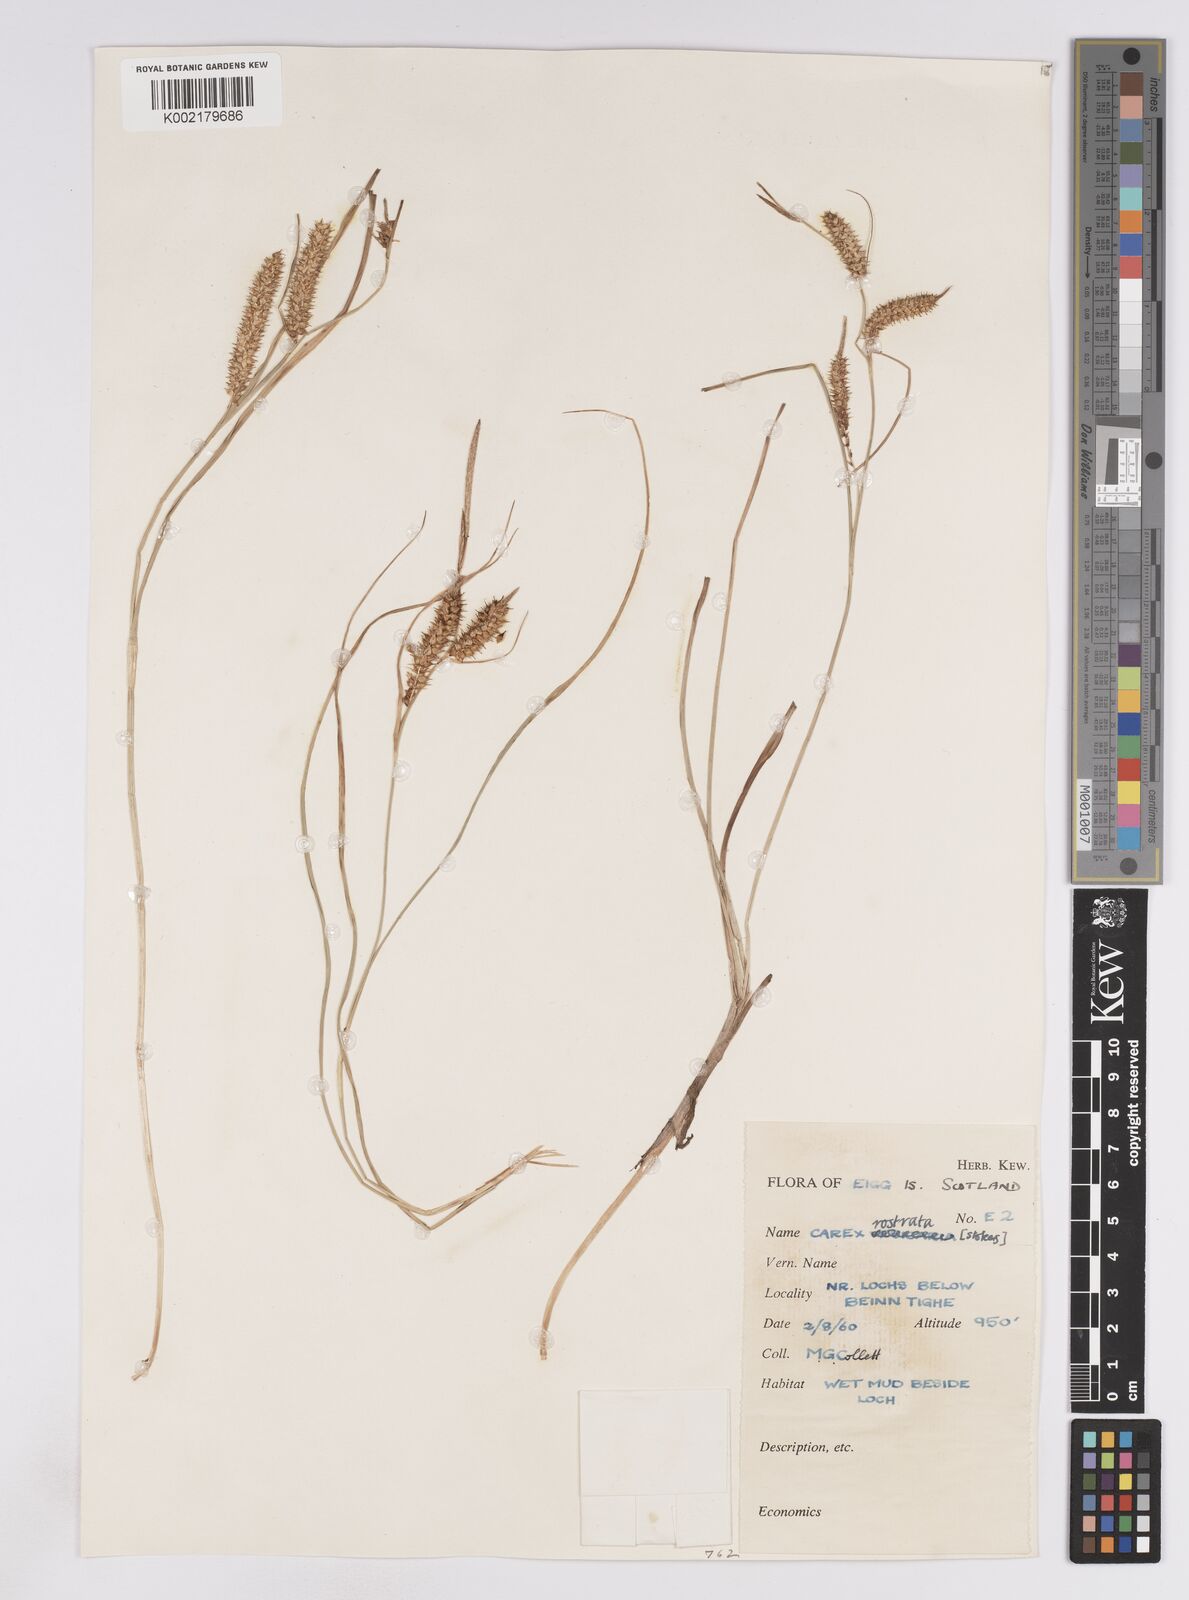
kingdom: Plantae
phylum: Tracheophyta
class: Liliopsida
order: Poales
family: Cyperaceae
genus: Carex
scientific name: Carex rostrata
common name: Bottle sedge
